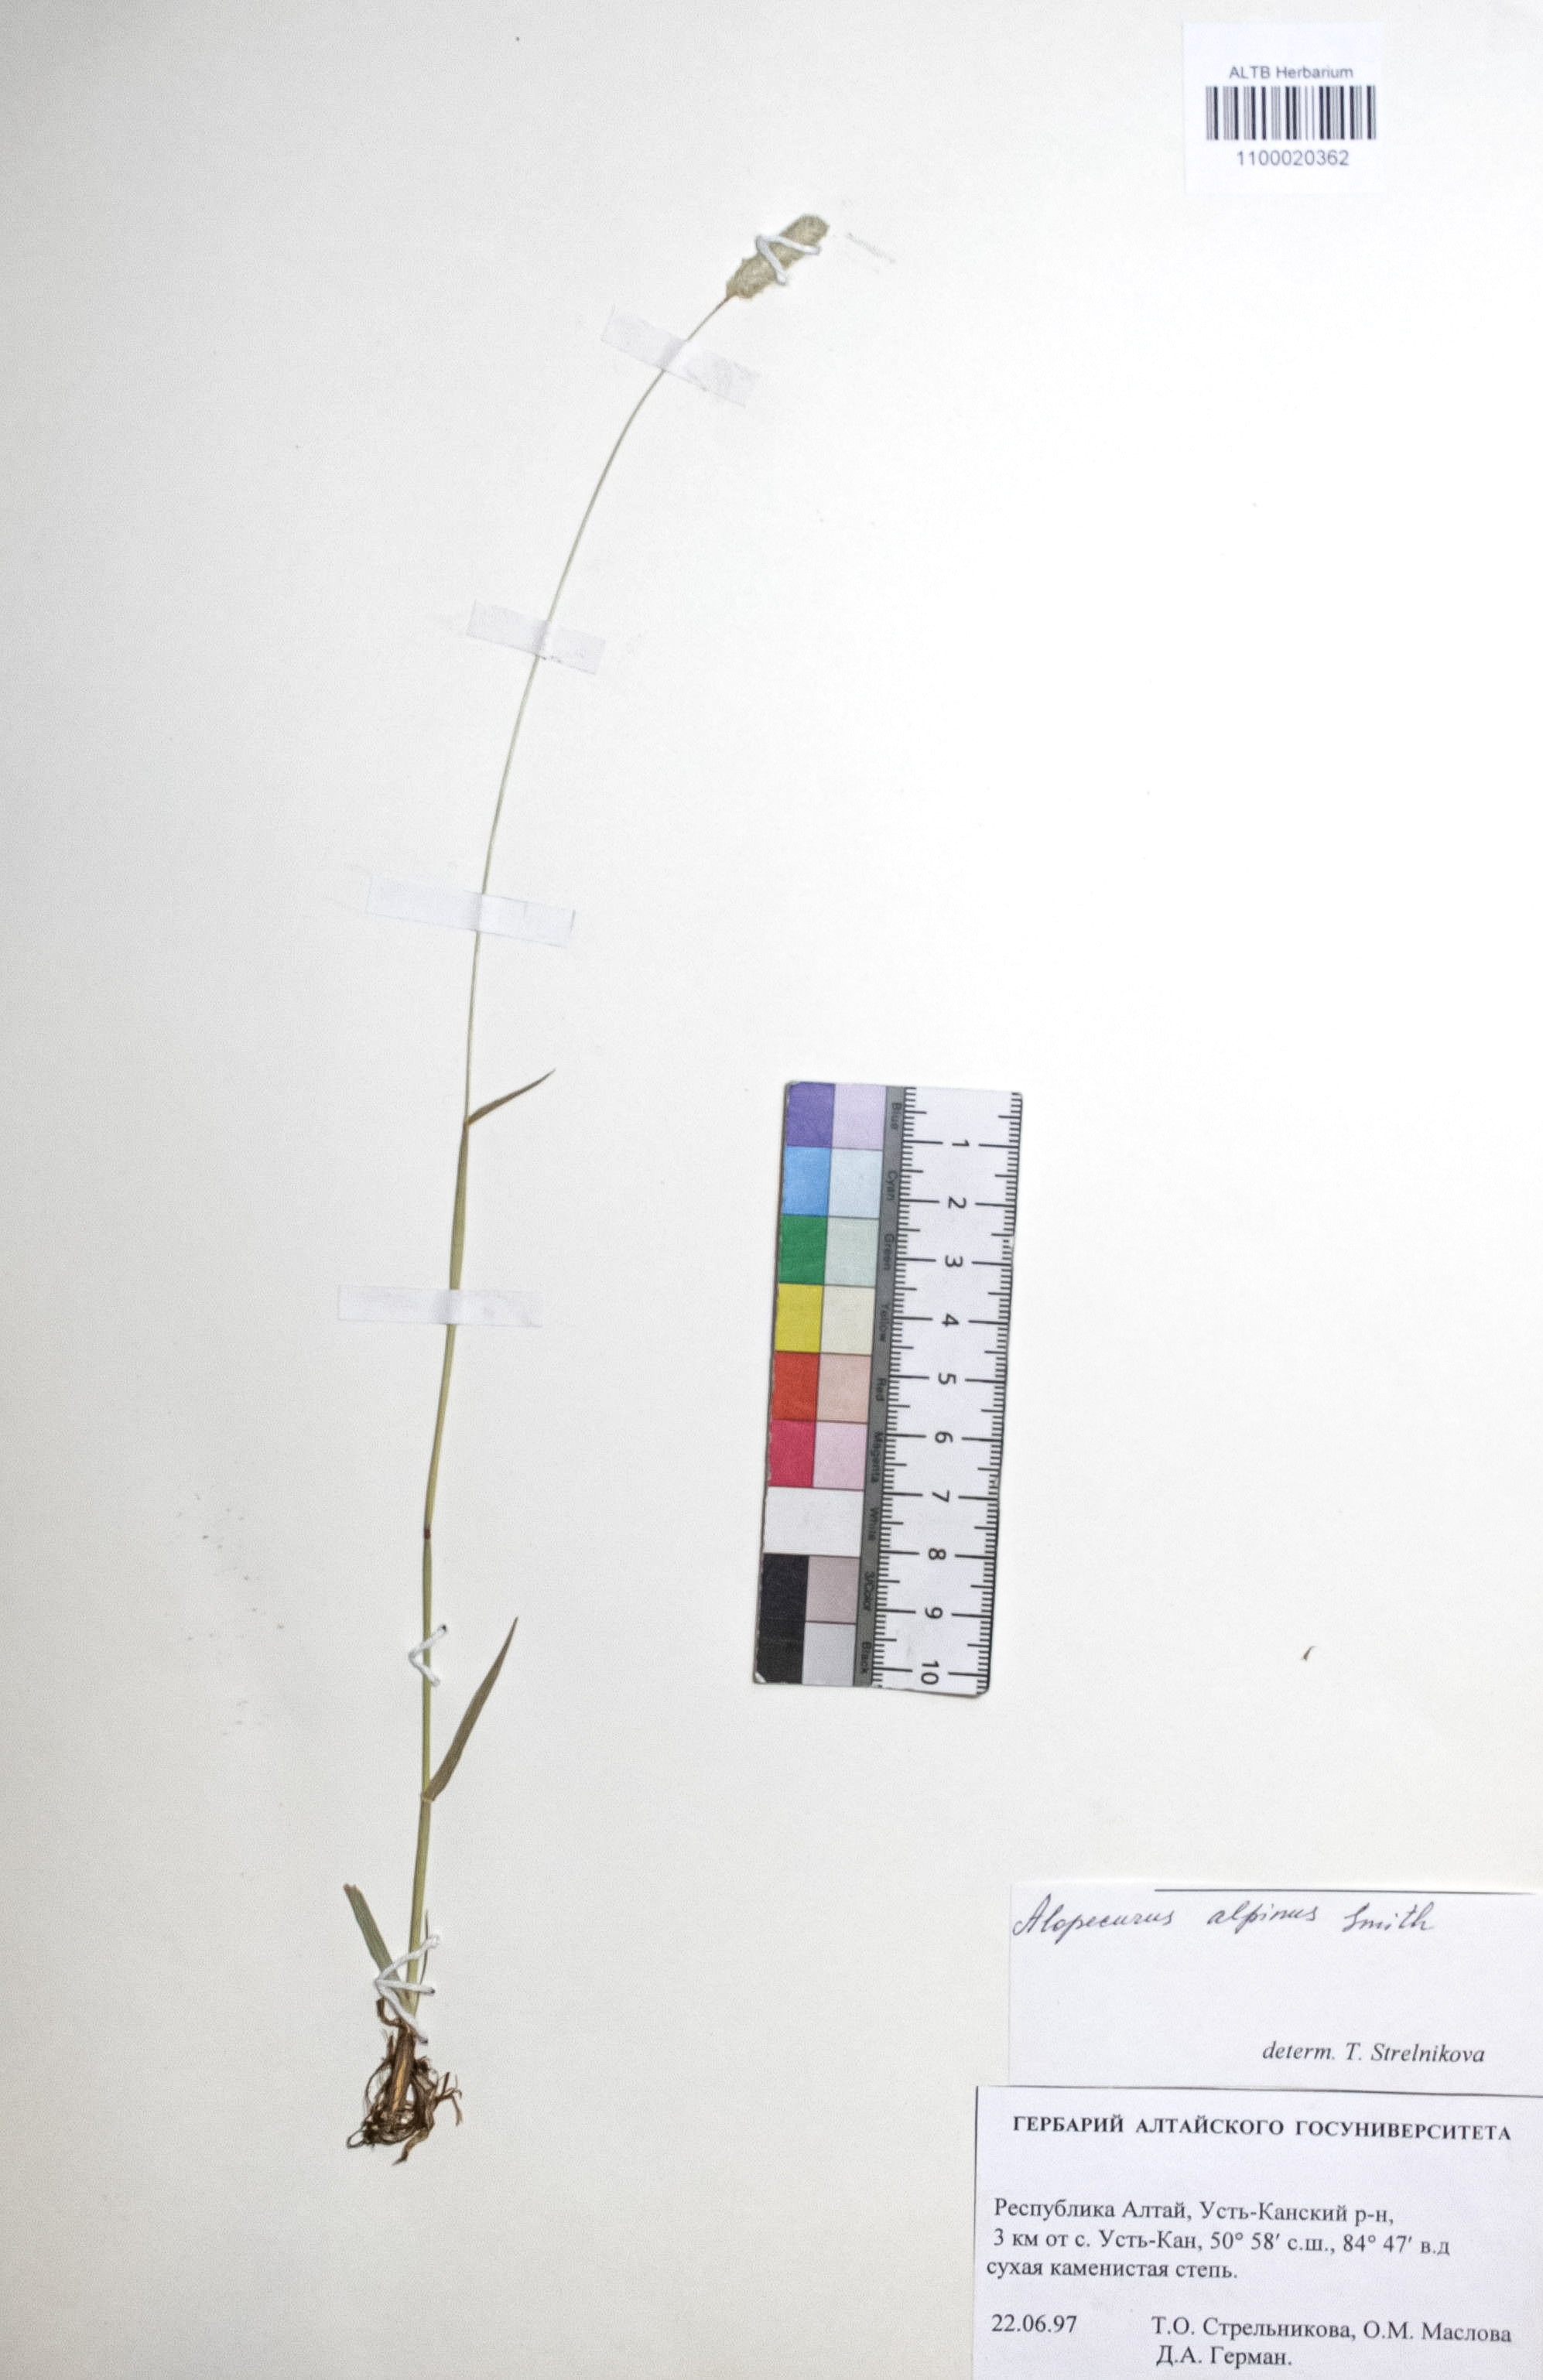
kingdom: Plantae
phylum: Tracheophyta
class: Liliopsida
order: Poales
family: Poaceae
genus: Alopecurus
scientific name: Alopecurus magellanicus
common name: Alpine foxtail
